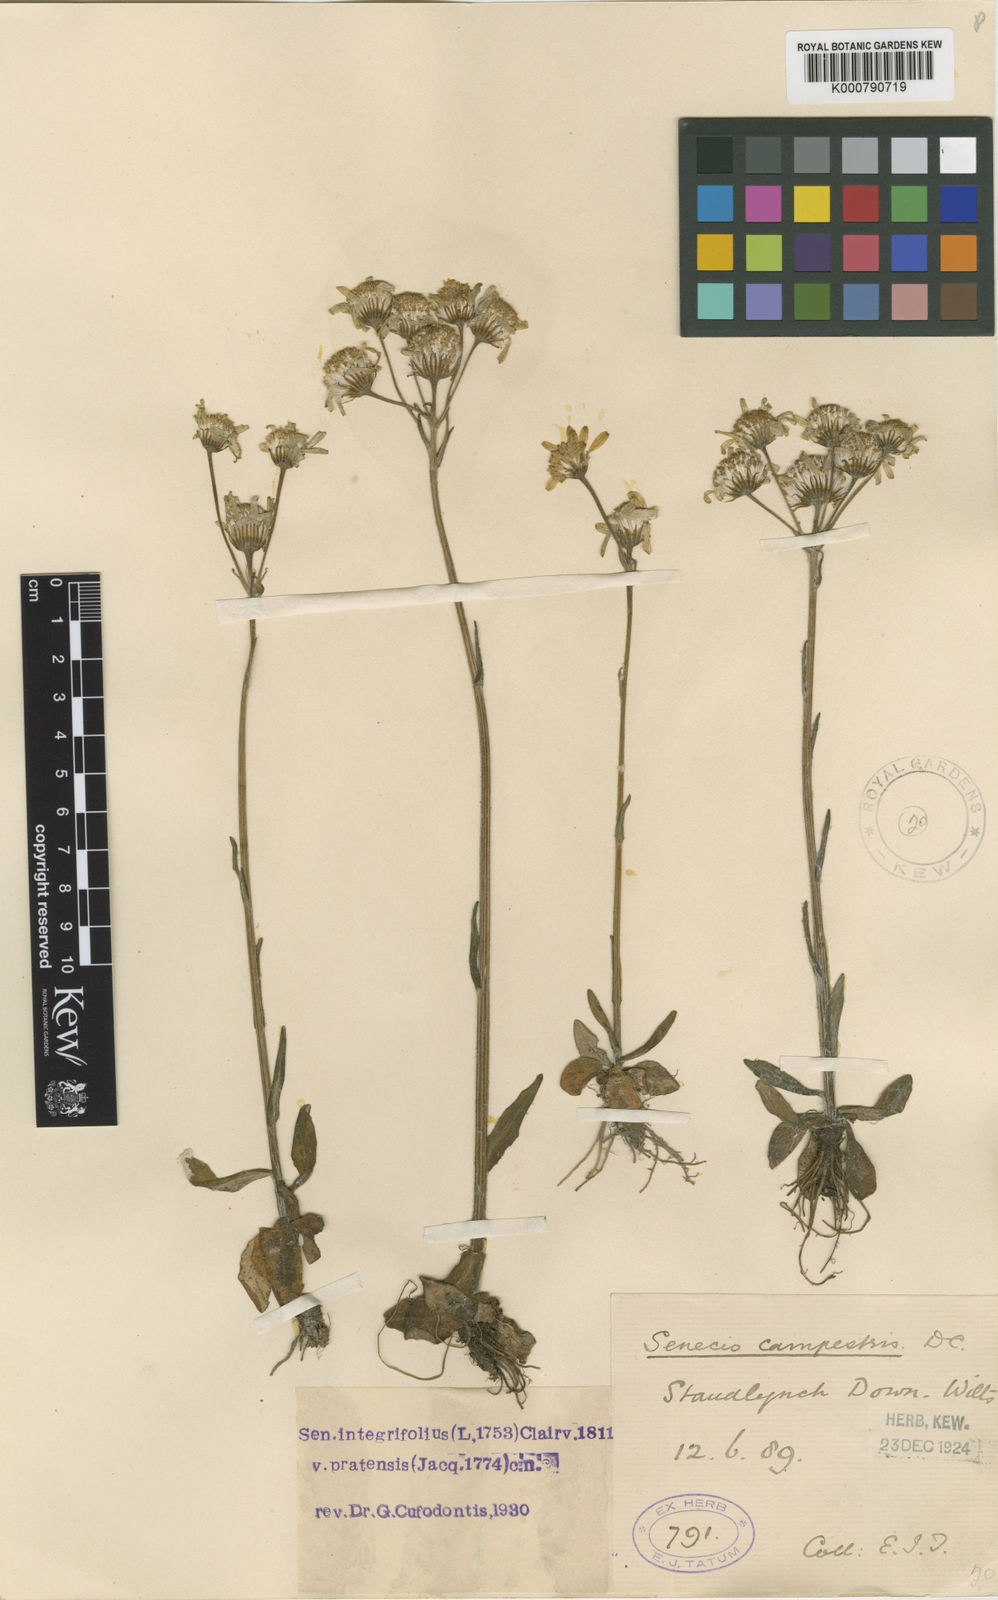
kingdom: Plantae
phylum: Tracheophyta
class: Magnoliopsida
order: Asterales
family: Asteraceae
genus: Tephroseris
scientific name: Tephroseris integrifolia
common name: Field fleawort
